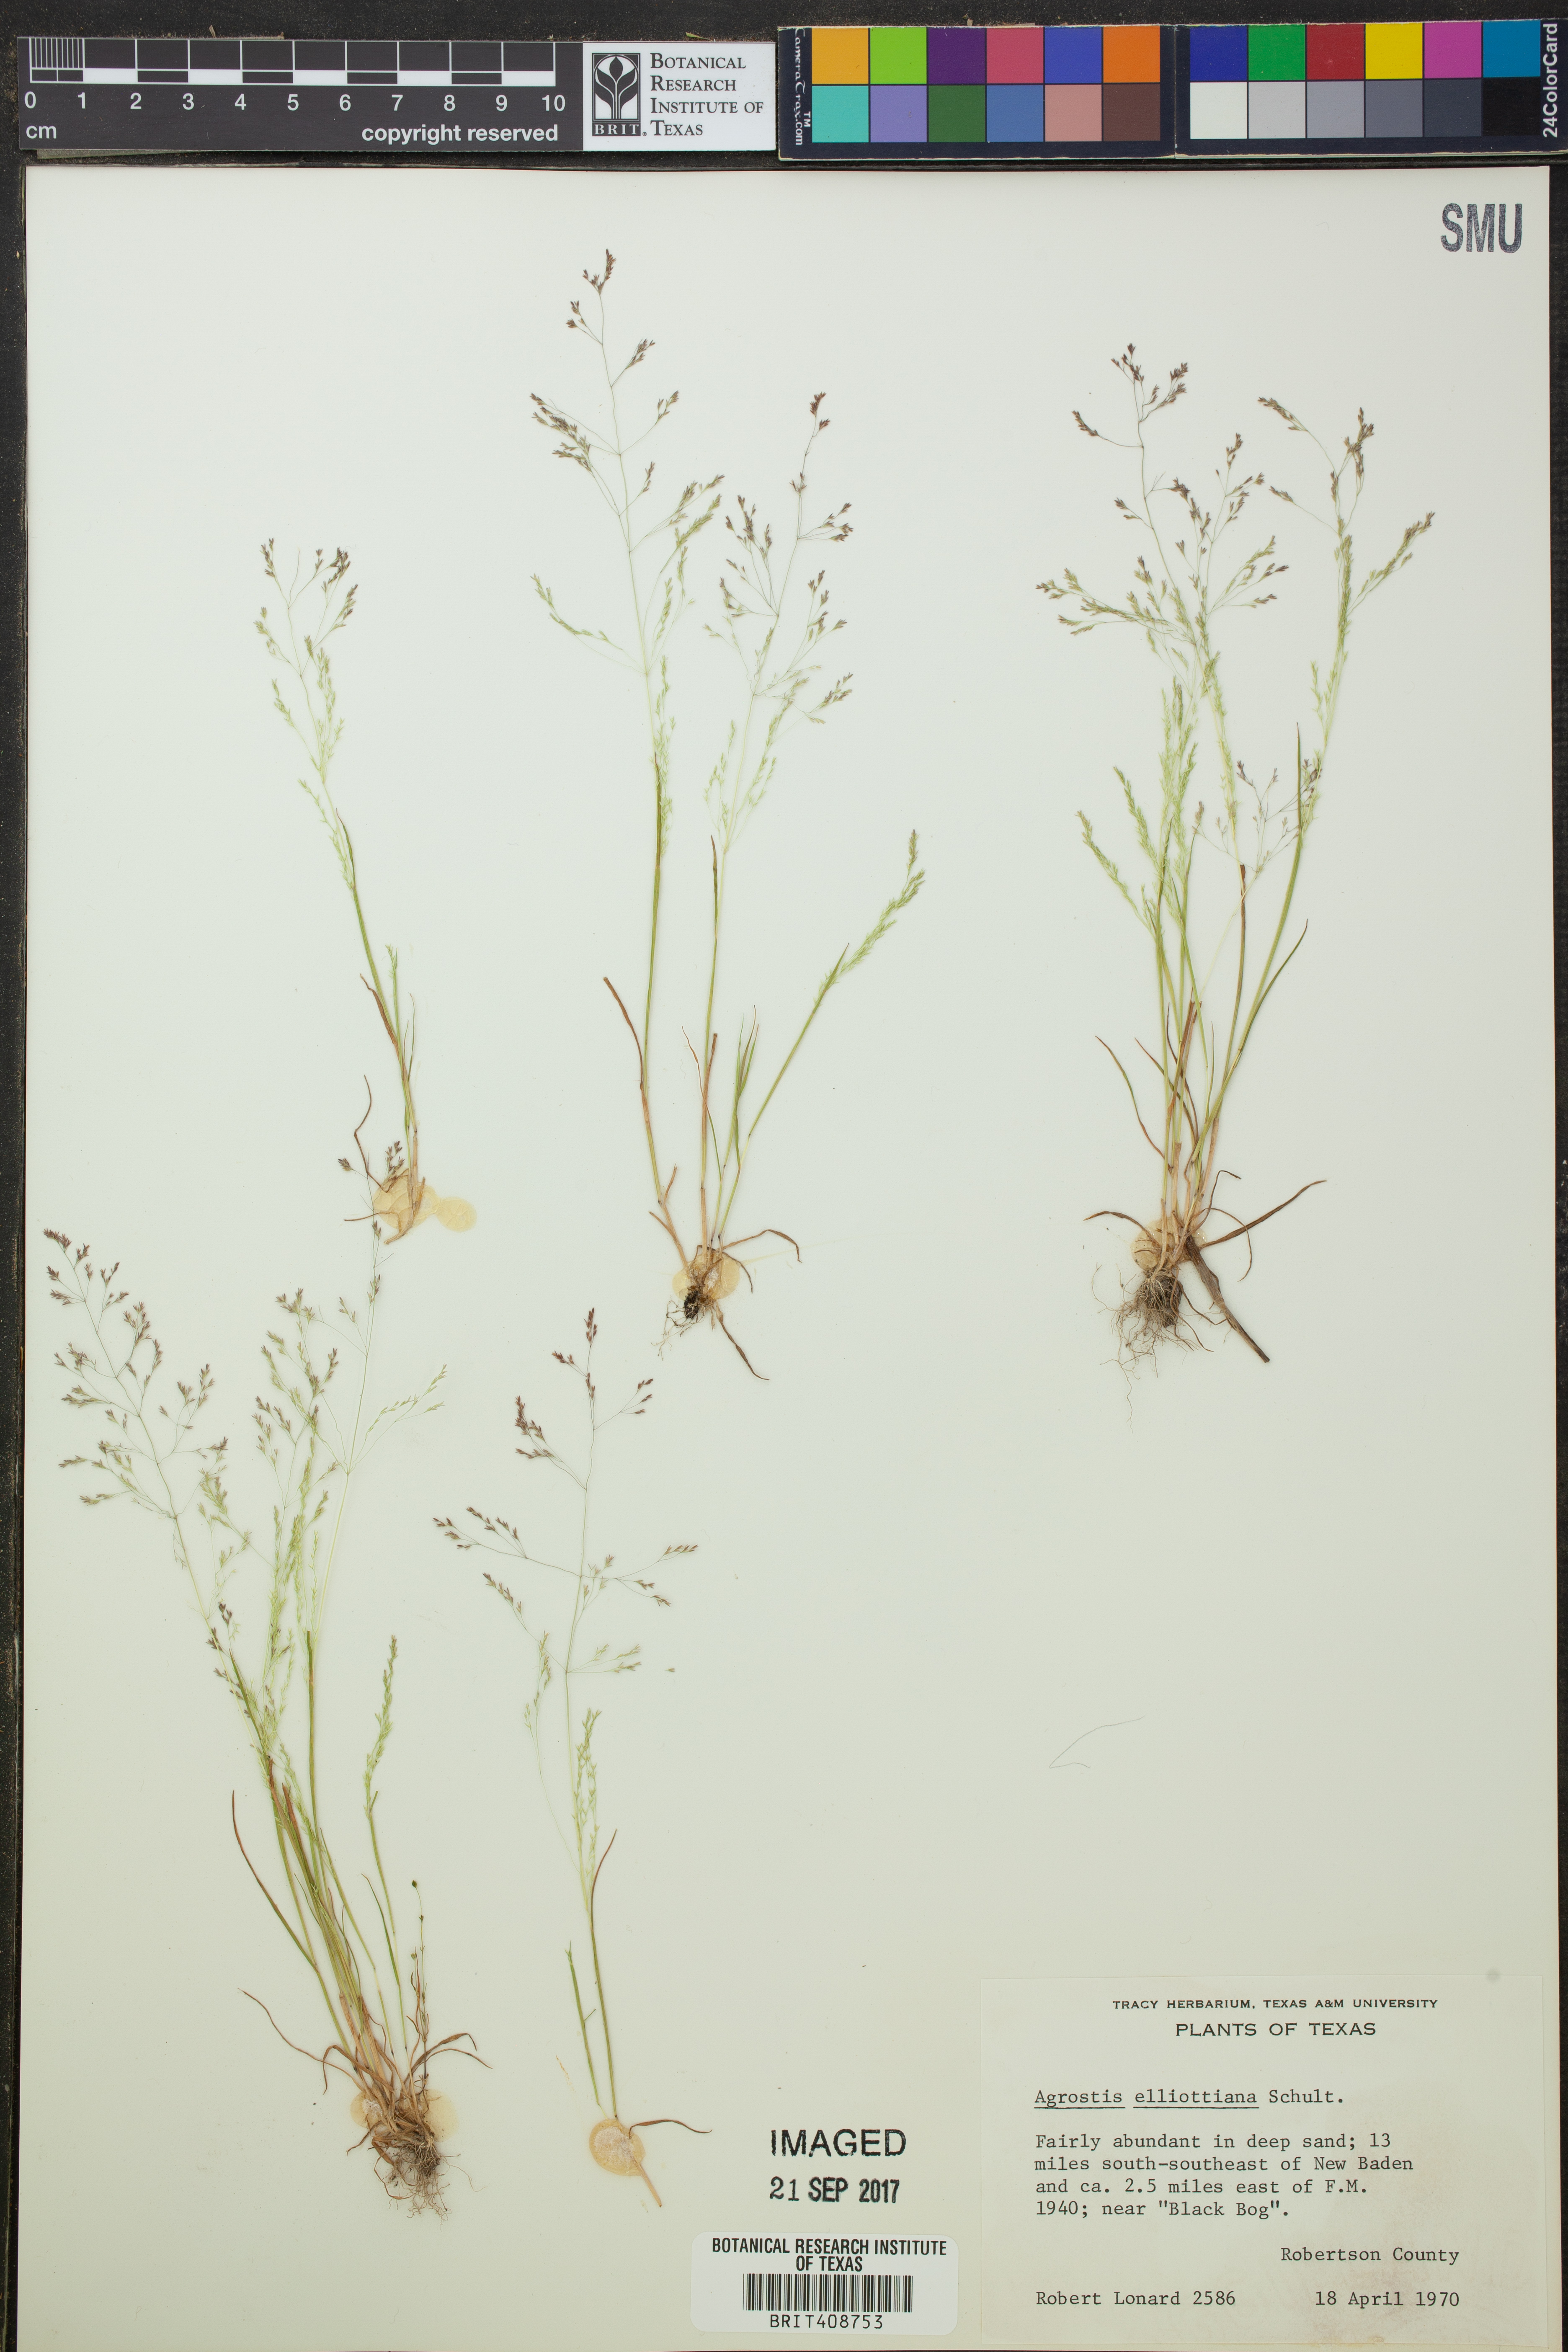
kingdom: Plantae
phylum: Tracheophyta
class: Liliopsida
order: Poales
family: Poaceae
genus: Agrostis
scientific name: Agrostis elliottiana
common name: Elliott's bent
